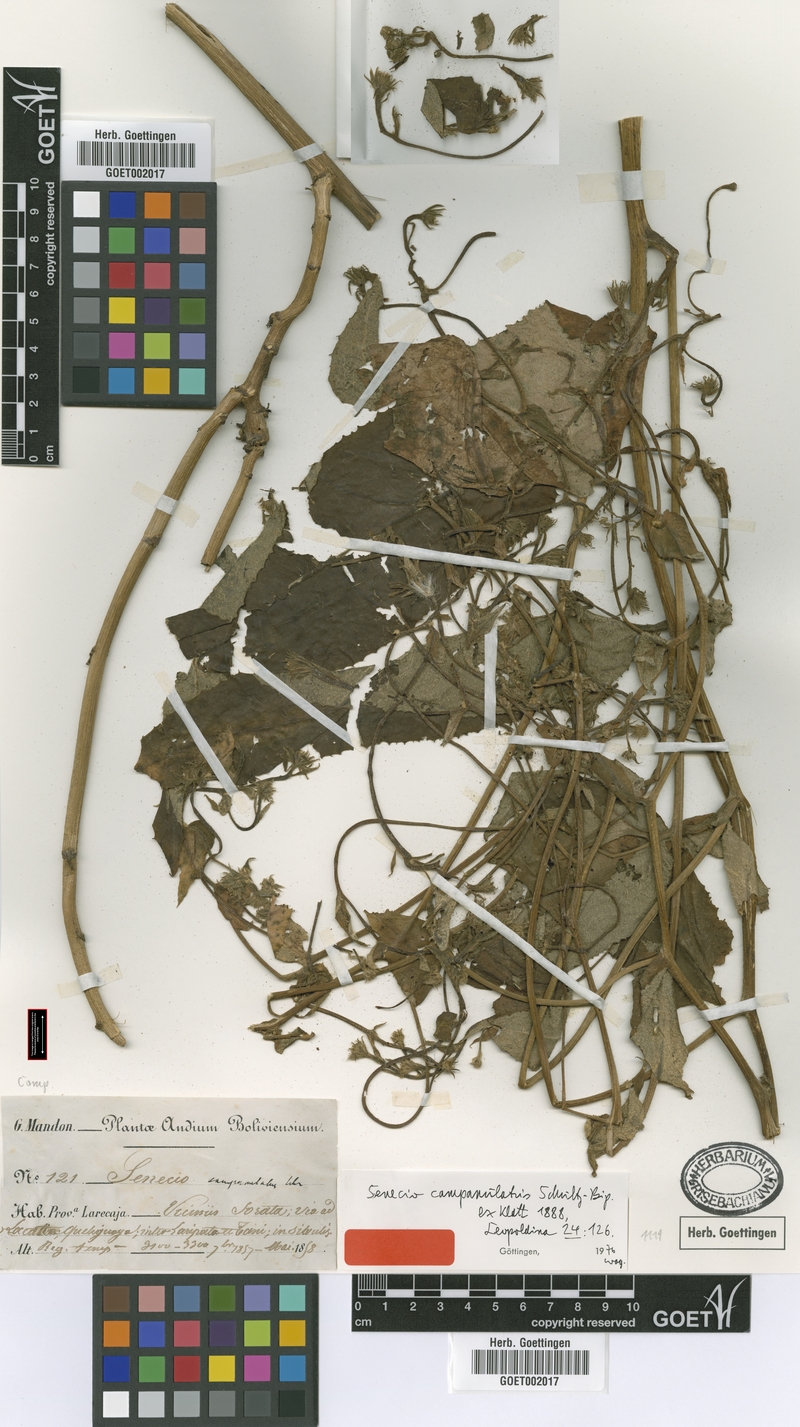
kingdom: Plantae
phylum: Tracheophyta
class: Magnoliopsida
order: Asterales
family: Asteraceae
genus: Aetheolaena
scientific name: Aetheolaena betonicifolia
